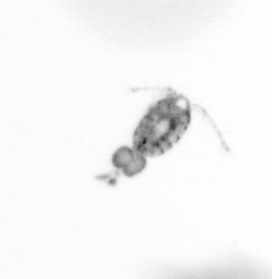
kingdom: Animalia
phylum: Arthropoda
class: Copepoda
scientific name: Copepoda
